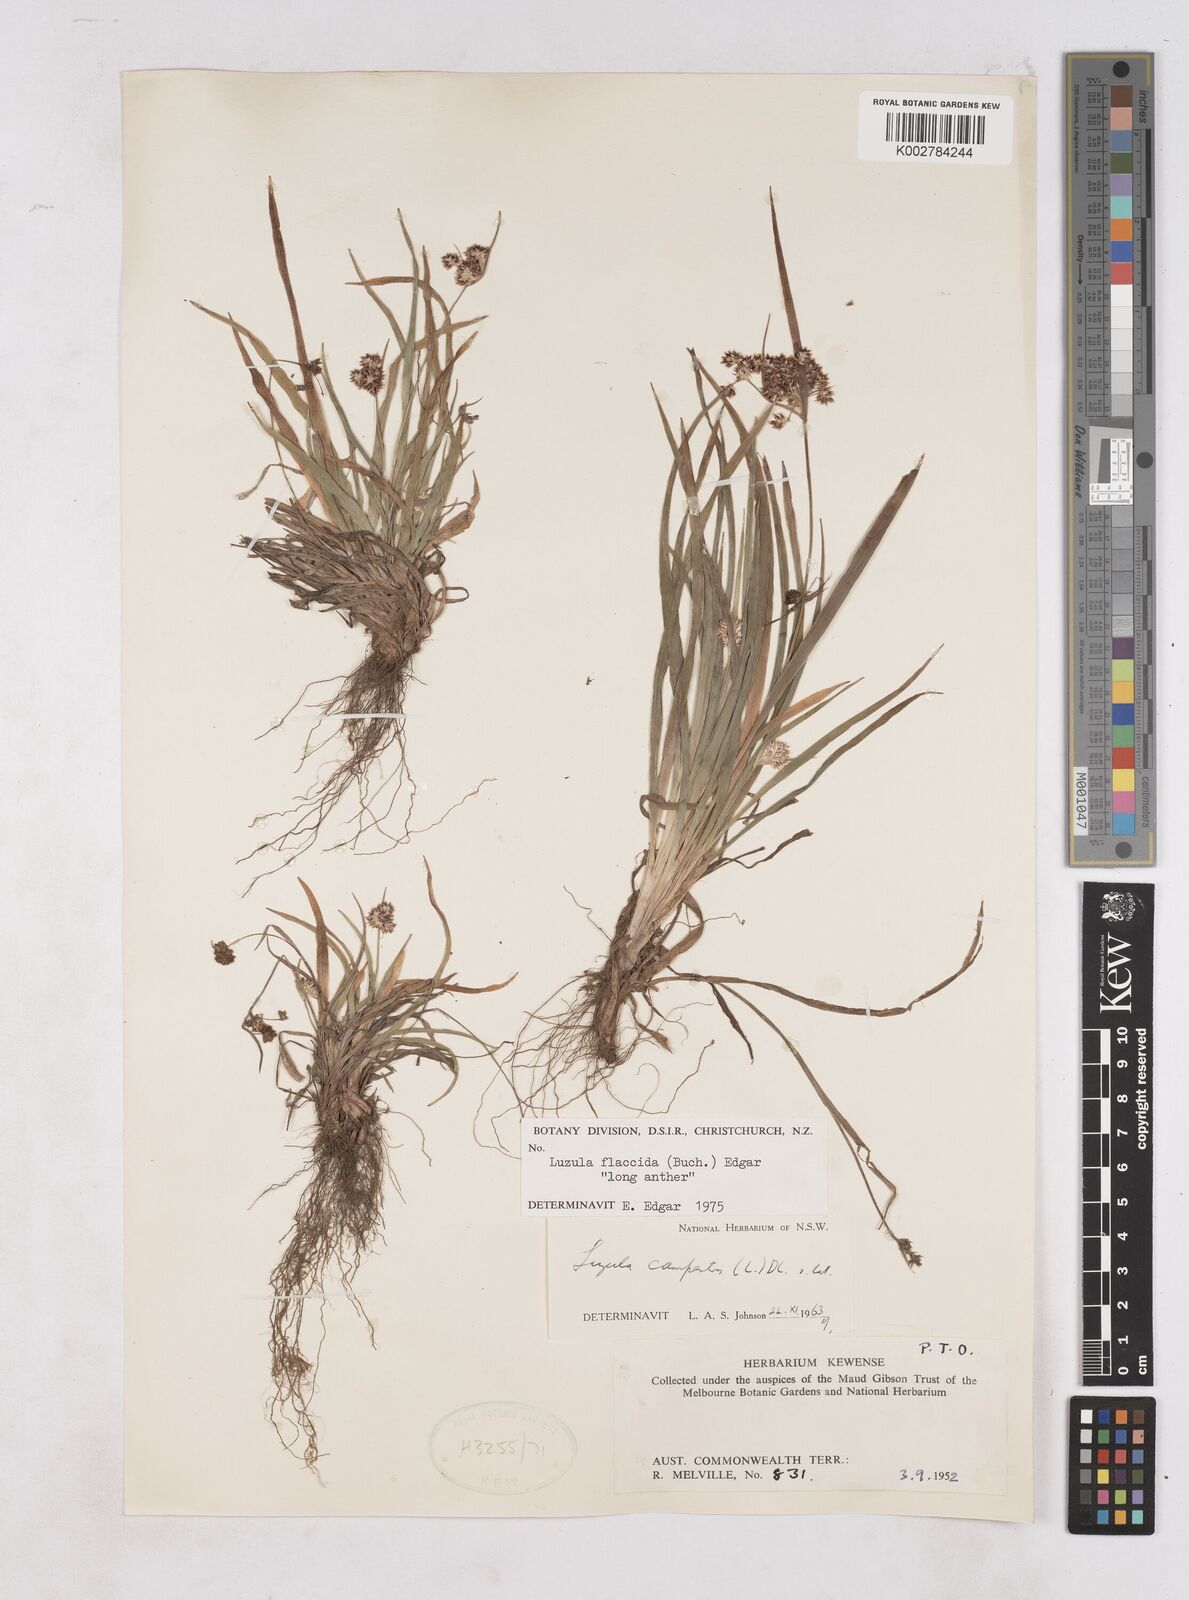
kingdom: Plantae
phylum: Tracheophyta
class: Liliopsida
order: Poales
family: Juncaceae
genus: Luzula
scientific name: Luzula flaccida
